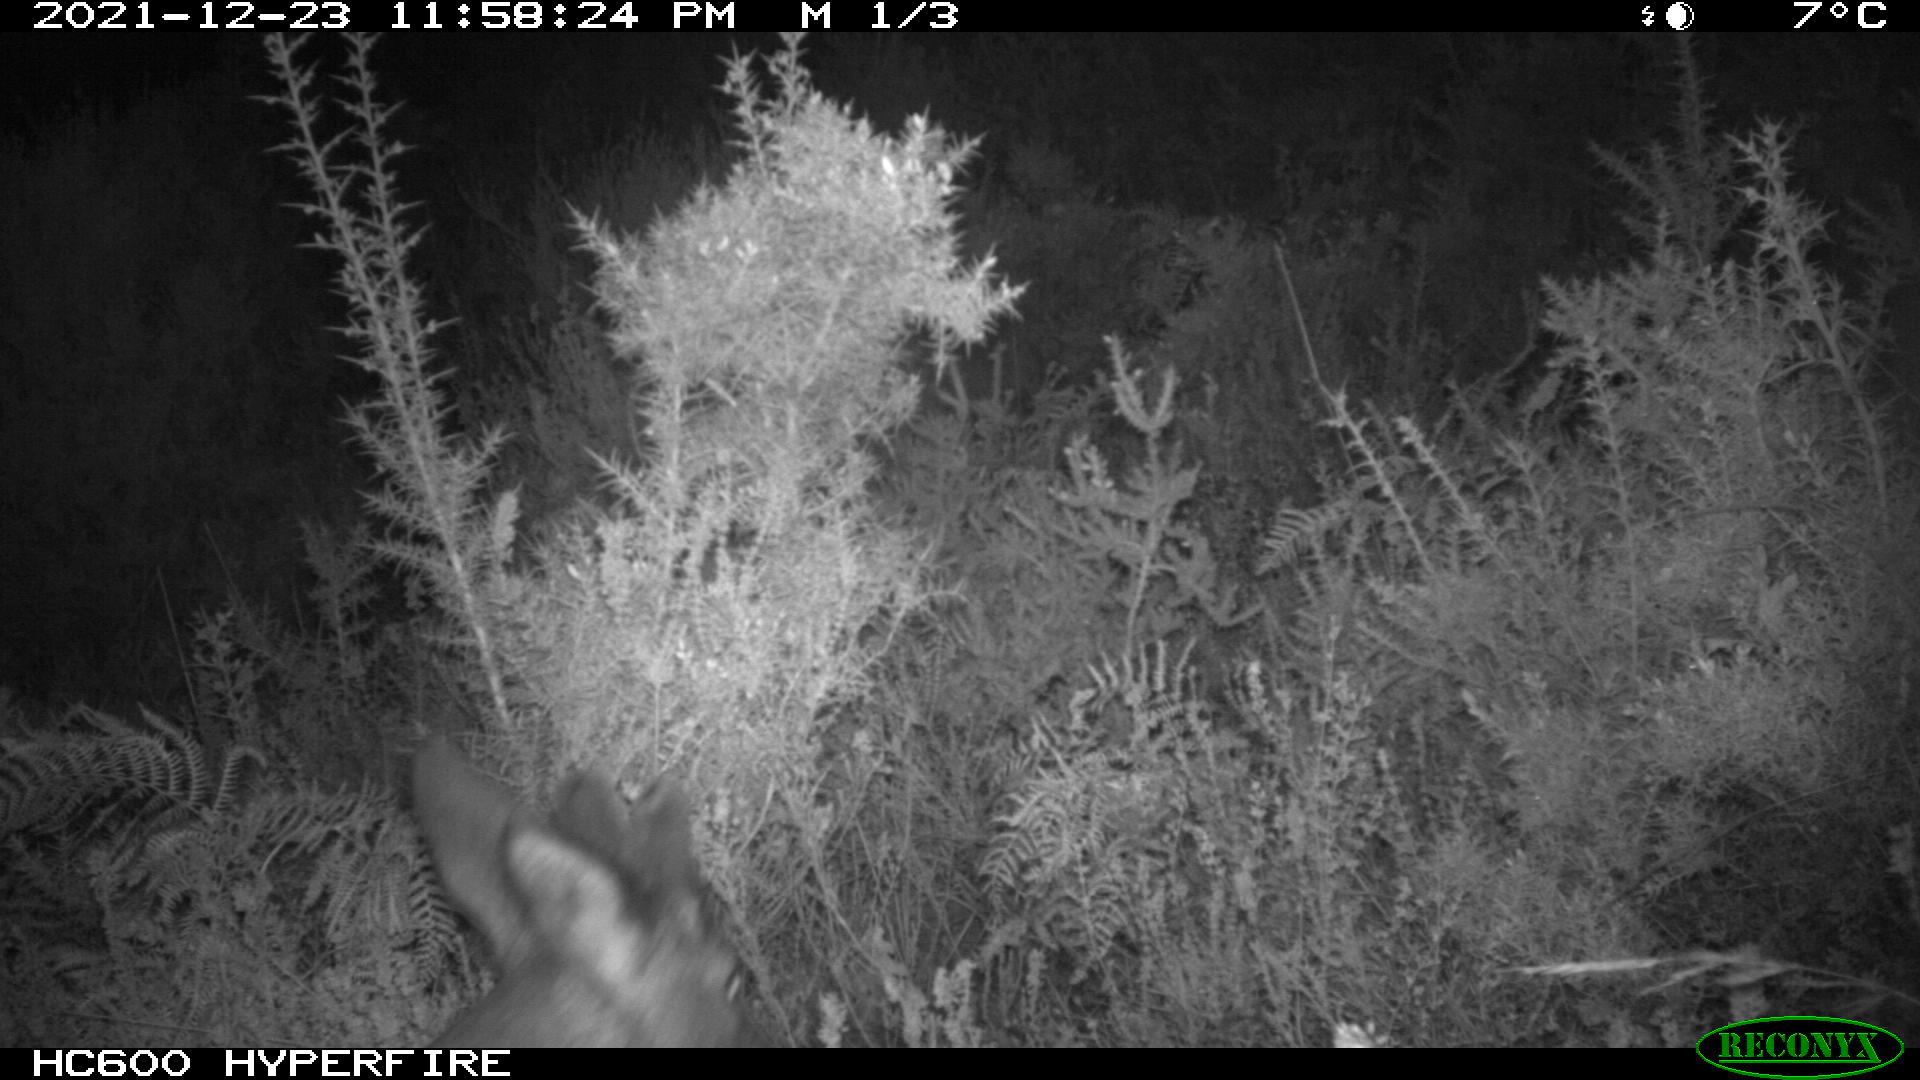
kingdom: Animalia
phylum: Chordata
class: Mammalia
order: Artiodactyla
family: Cervidae
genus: Capreolus
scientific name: Capreolus capreolus
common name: Western roe deer
